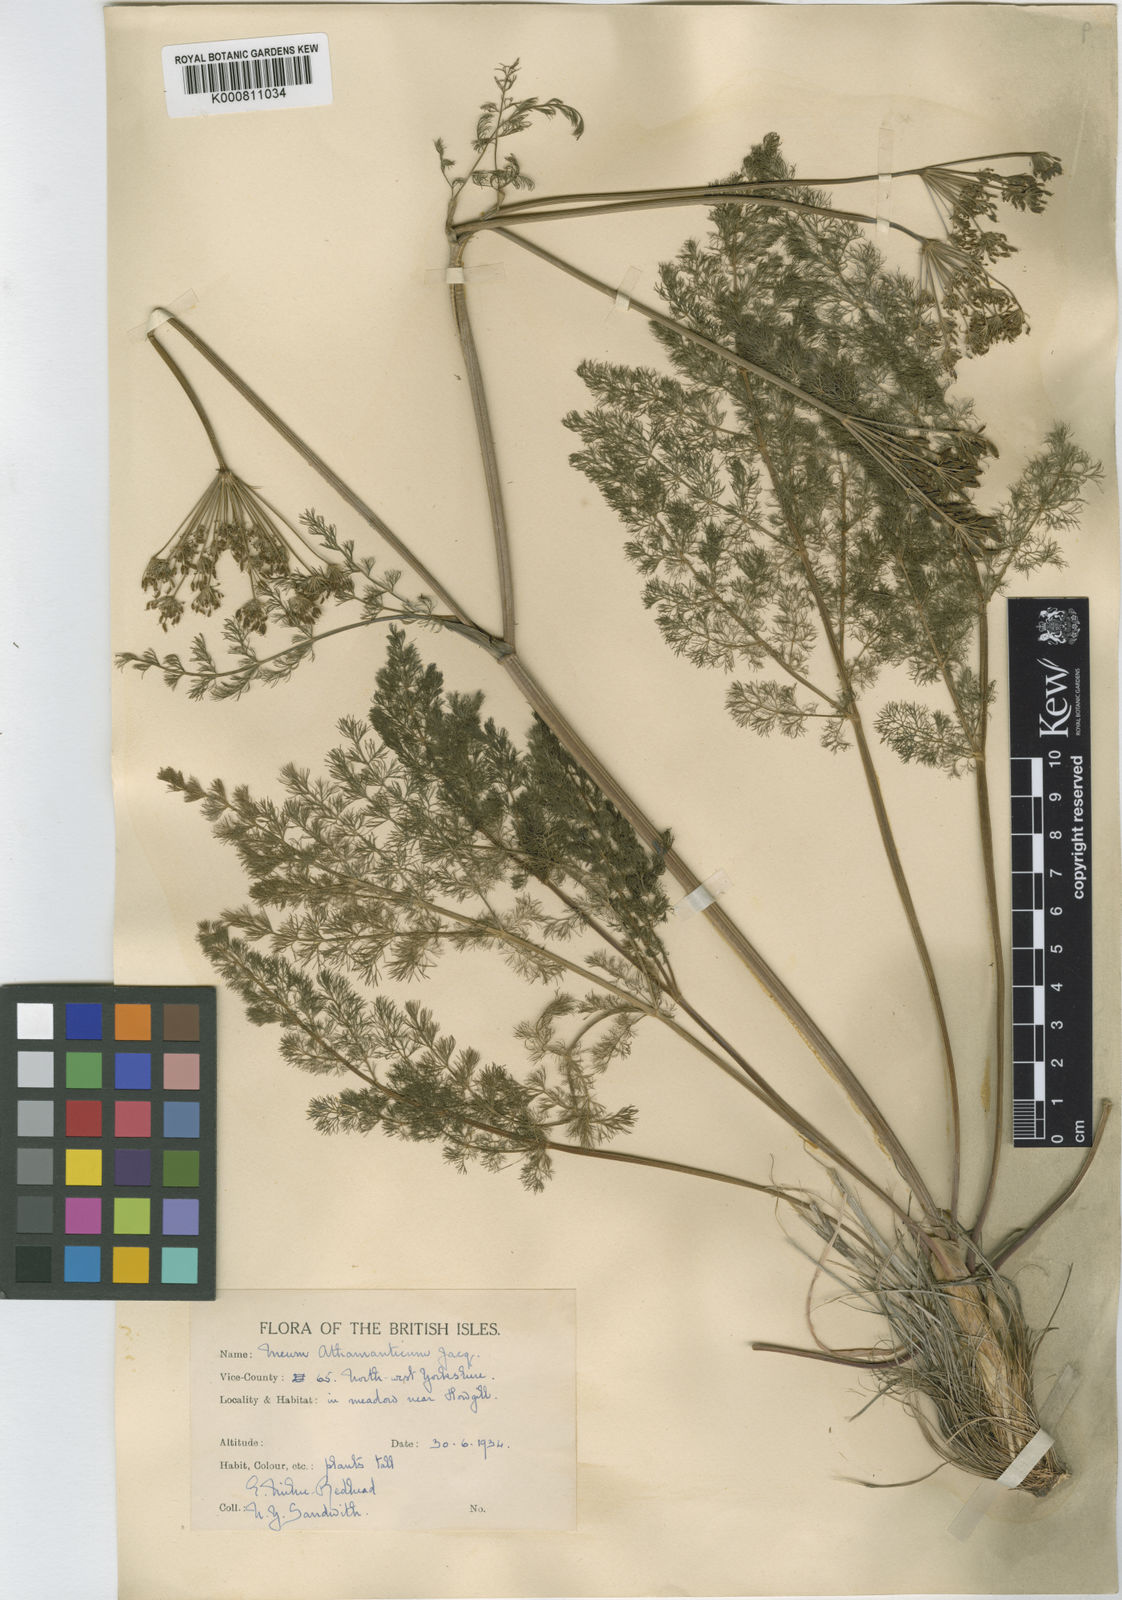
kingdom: Plantae
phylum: Tracheophyta
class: Magnoliopsida
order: Apiales
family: Apiaceae
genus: Meum
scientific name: Meum athamanticum
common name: Spignel
